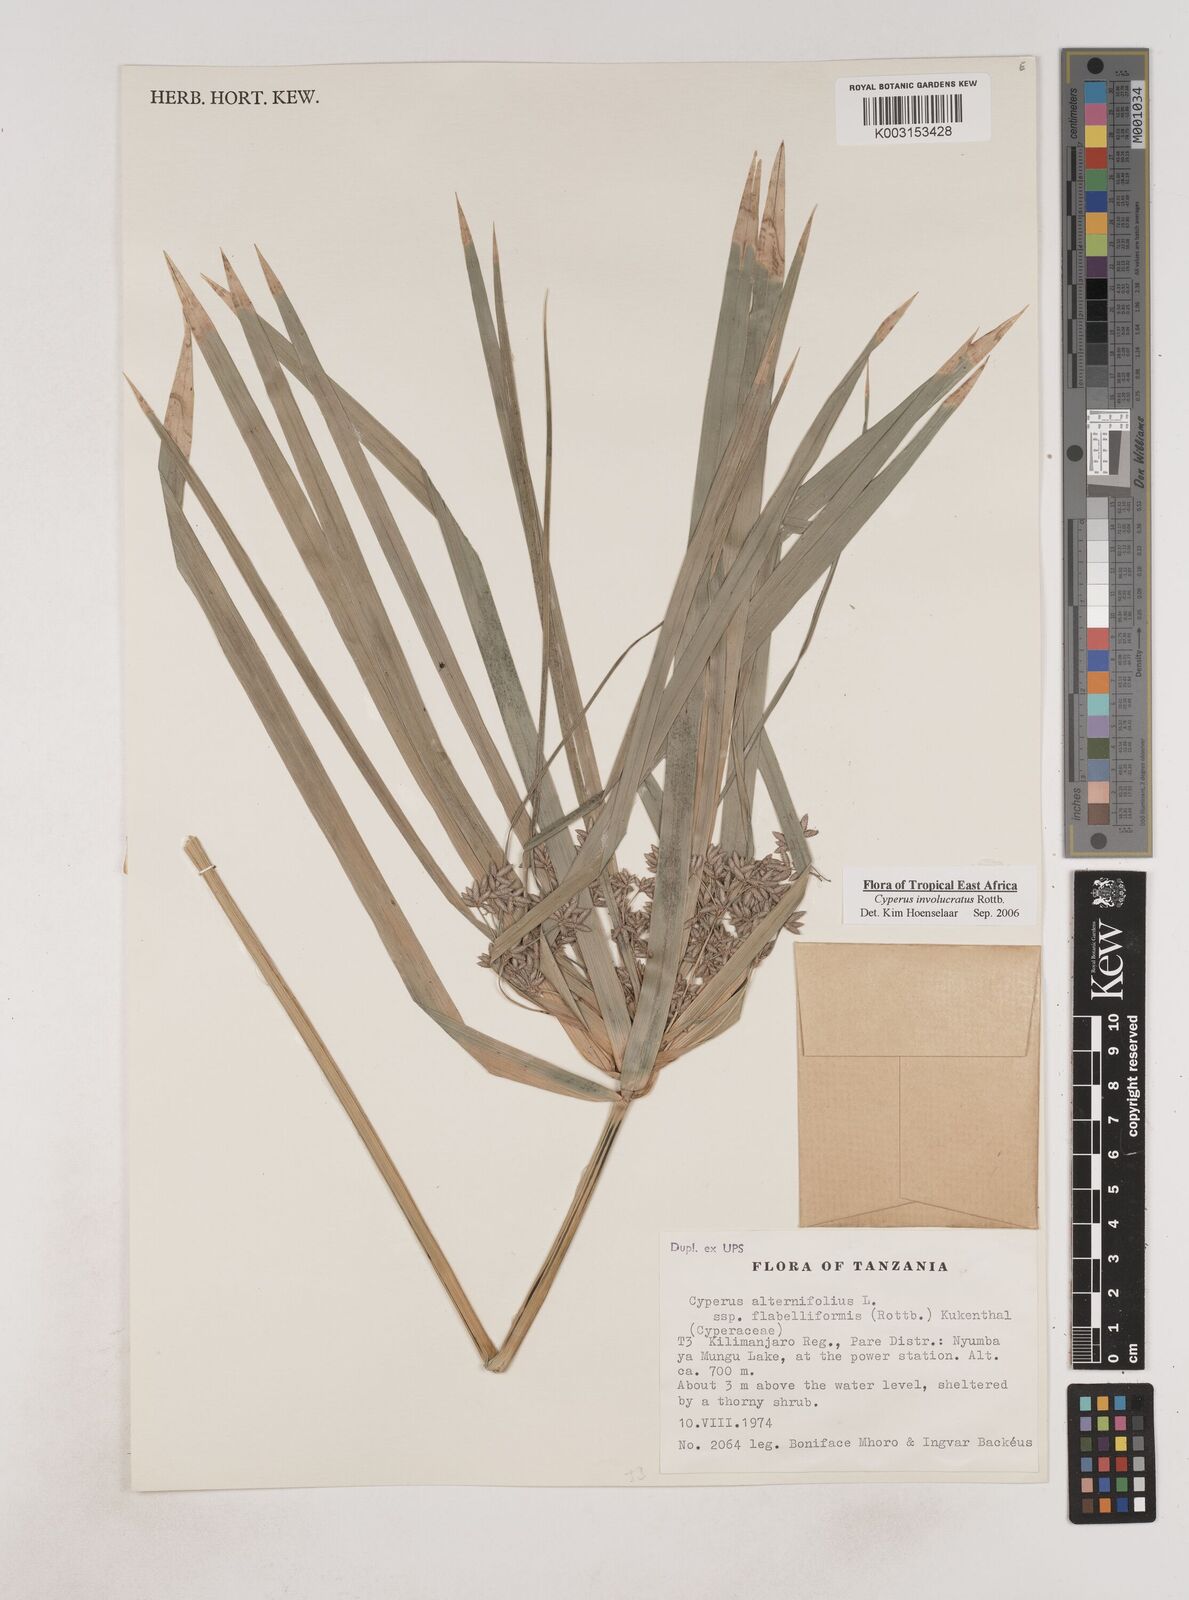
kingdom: Plantae
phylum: Tracheophyta
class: Liliopsida
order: Poales
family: Cyperaceae
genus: Cyperus
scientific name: Cyperus alternifolius
